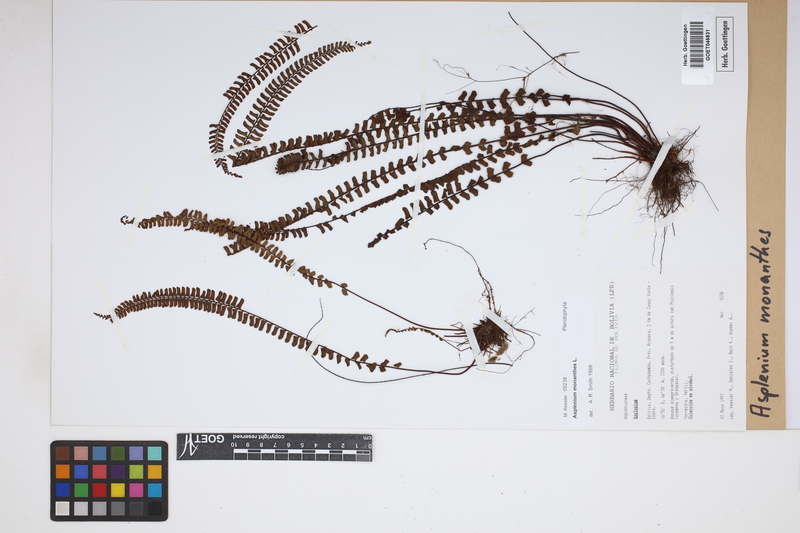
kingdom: Plantae
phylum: Tracheophyta
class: Polypodiopsida
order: Polypodiales
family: Aspleniaceae
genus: Asplenium
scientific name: Asplenium monanthes
